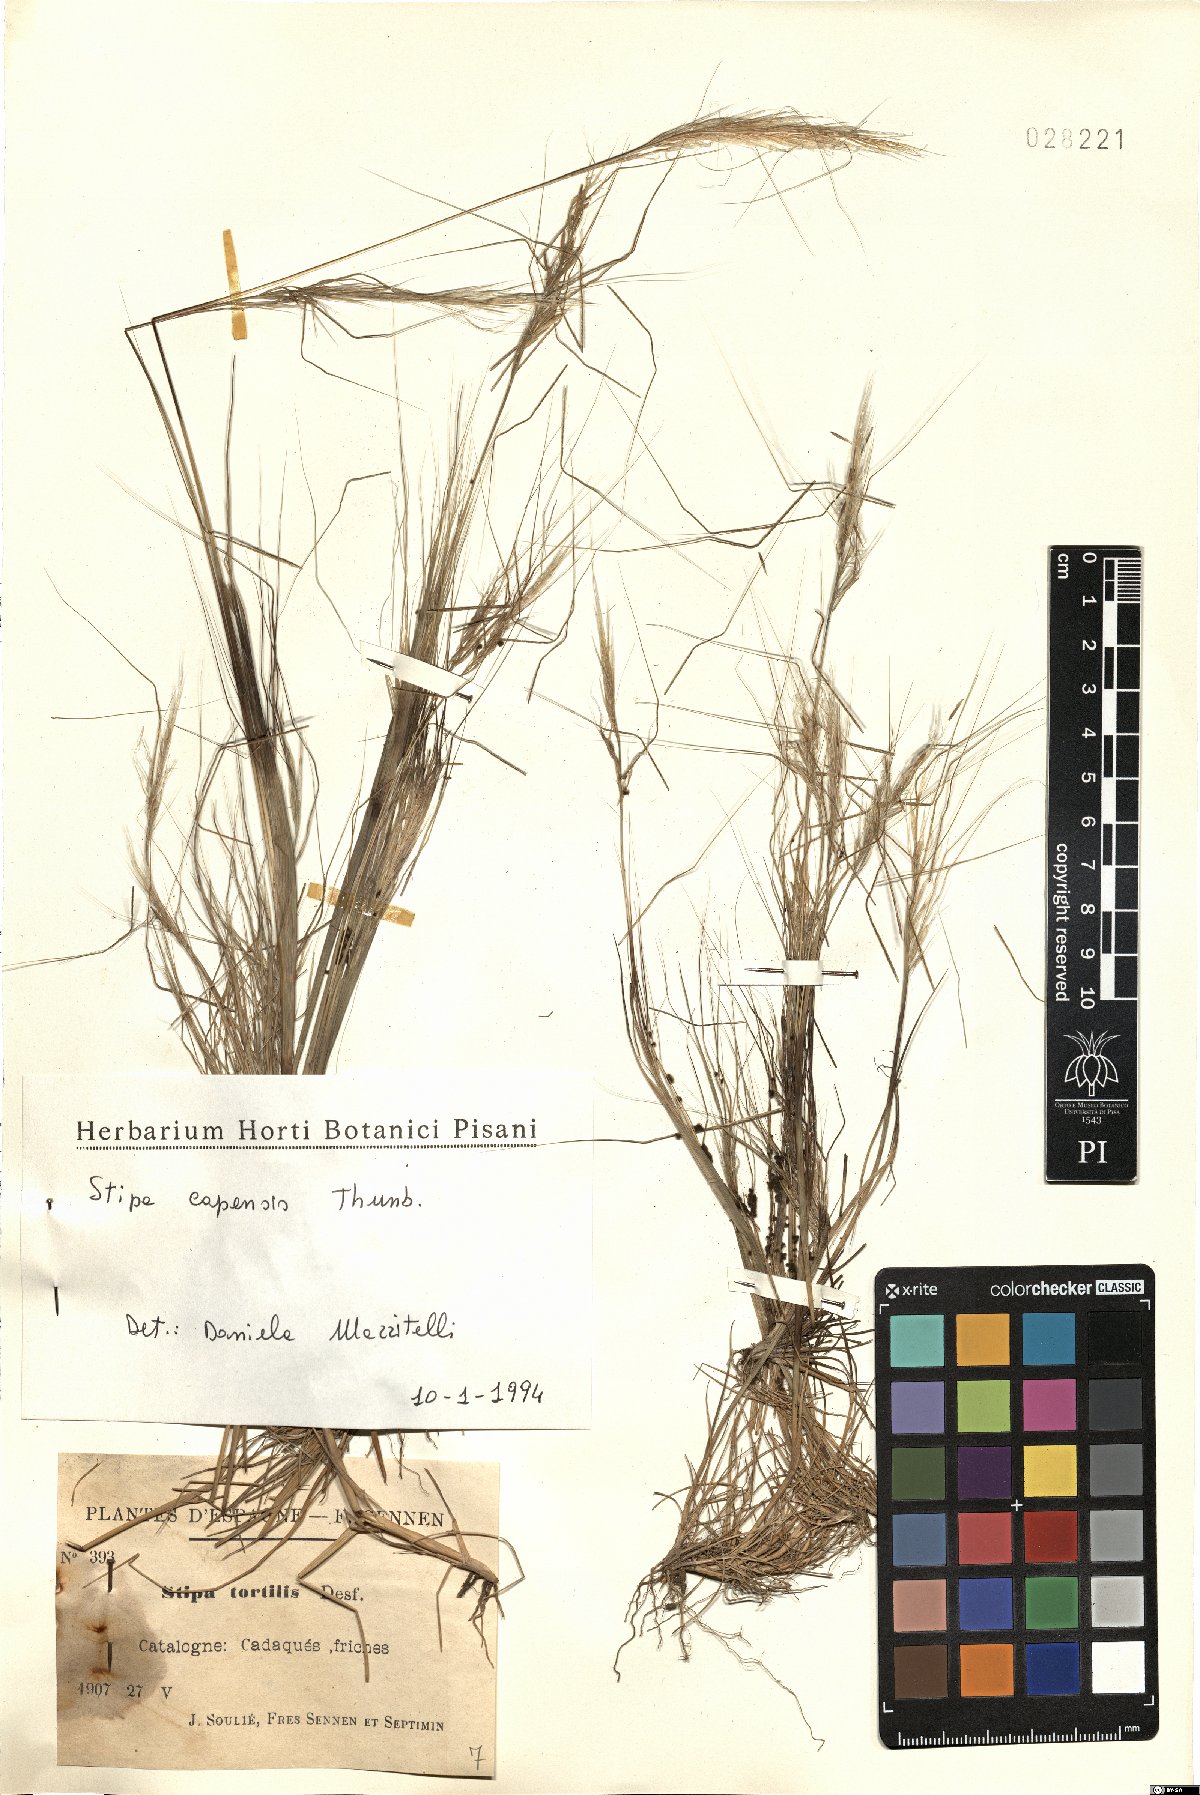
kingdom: Plantae
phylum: Tracheophyta
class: Liliopsida
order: Poales
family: Poaceae
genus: Stipellula
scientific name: Stipellula capensis
